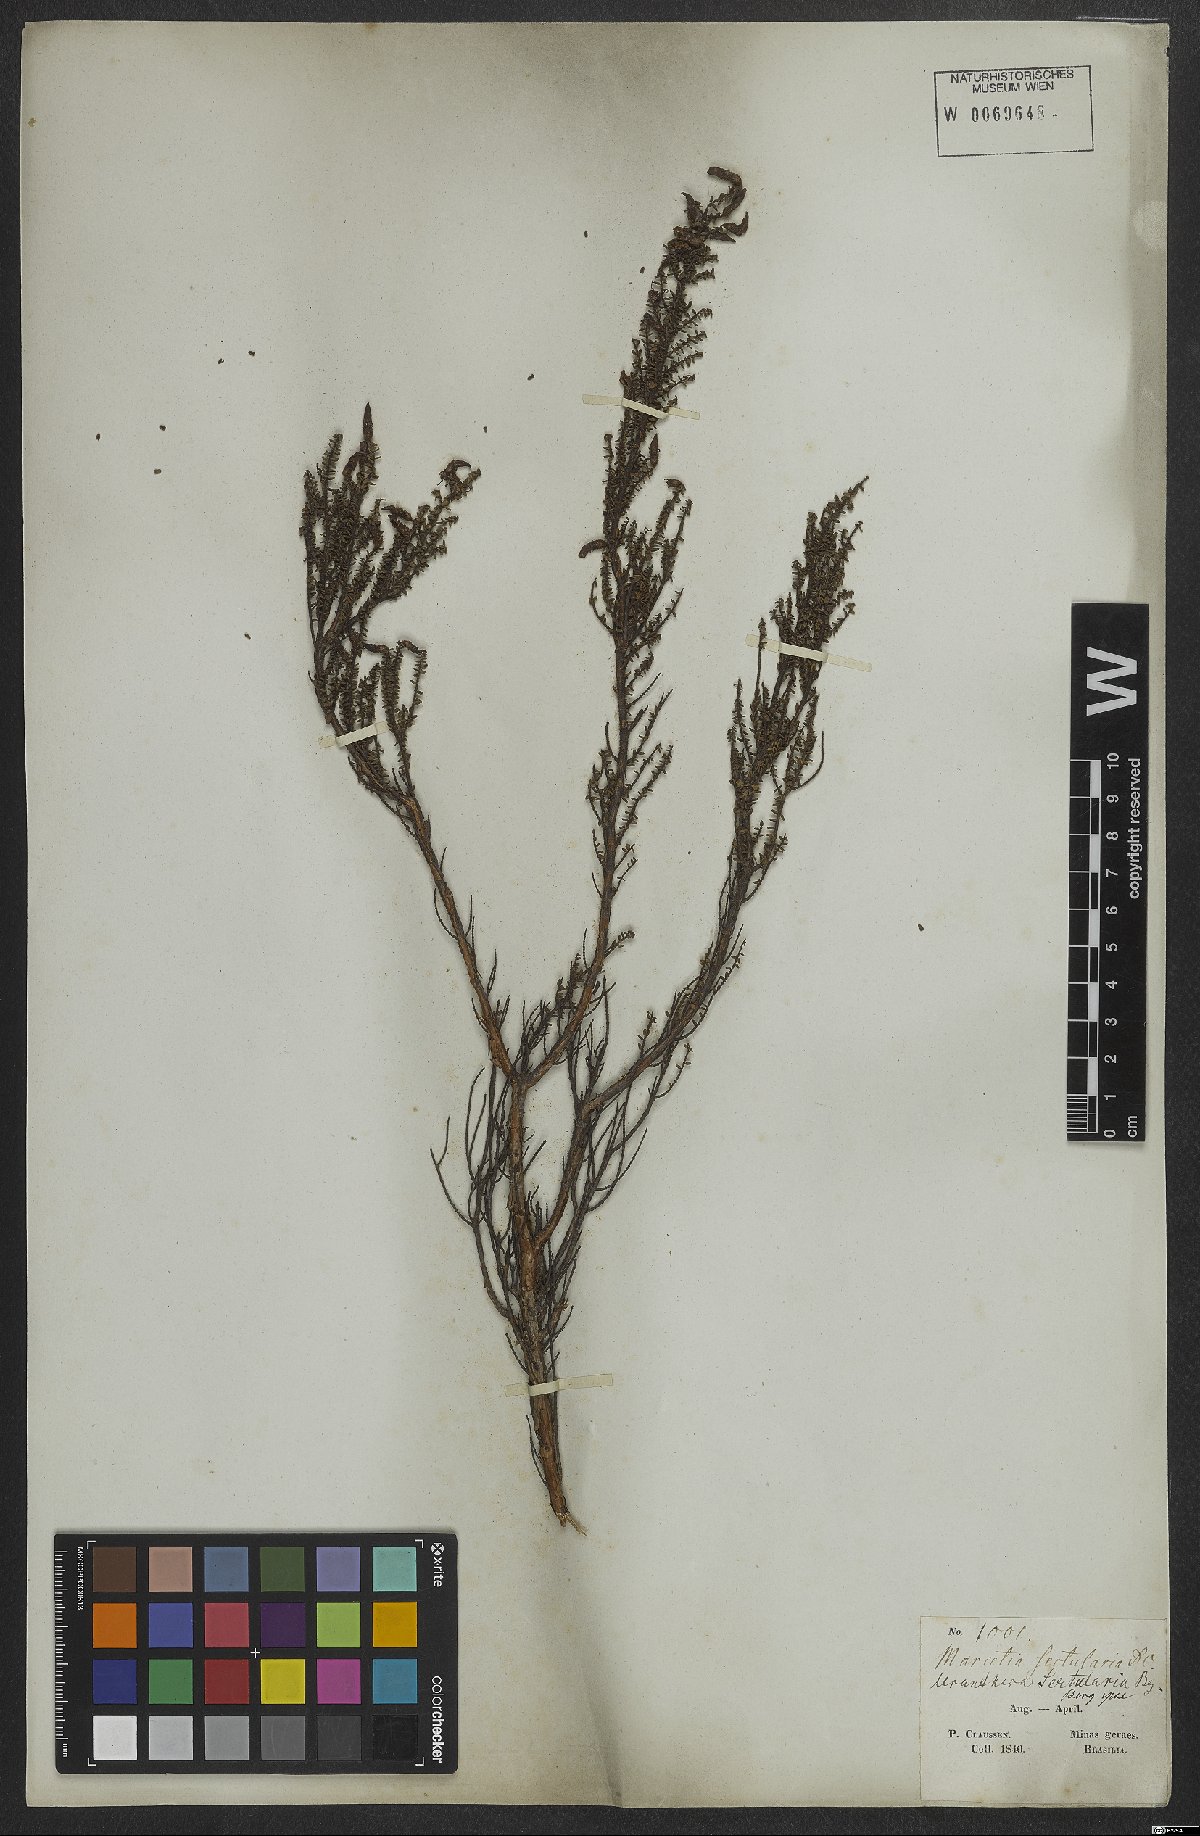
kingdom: Plantae
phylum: Tracheophyta
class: Magnoliopsida
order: Myrtales
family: Melastomataceae
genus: Fritzschia
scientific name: Fritzschia sertularia
